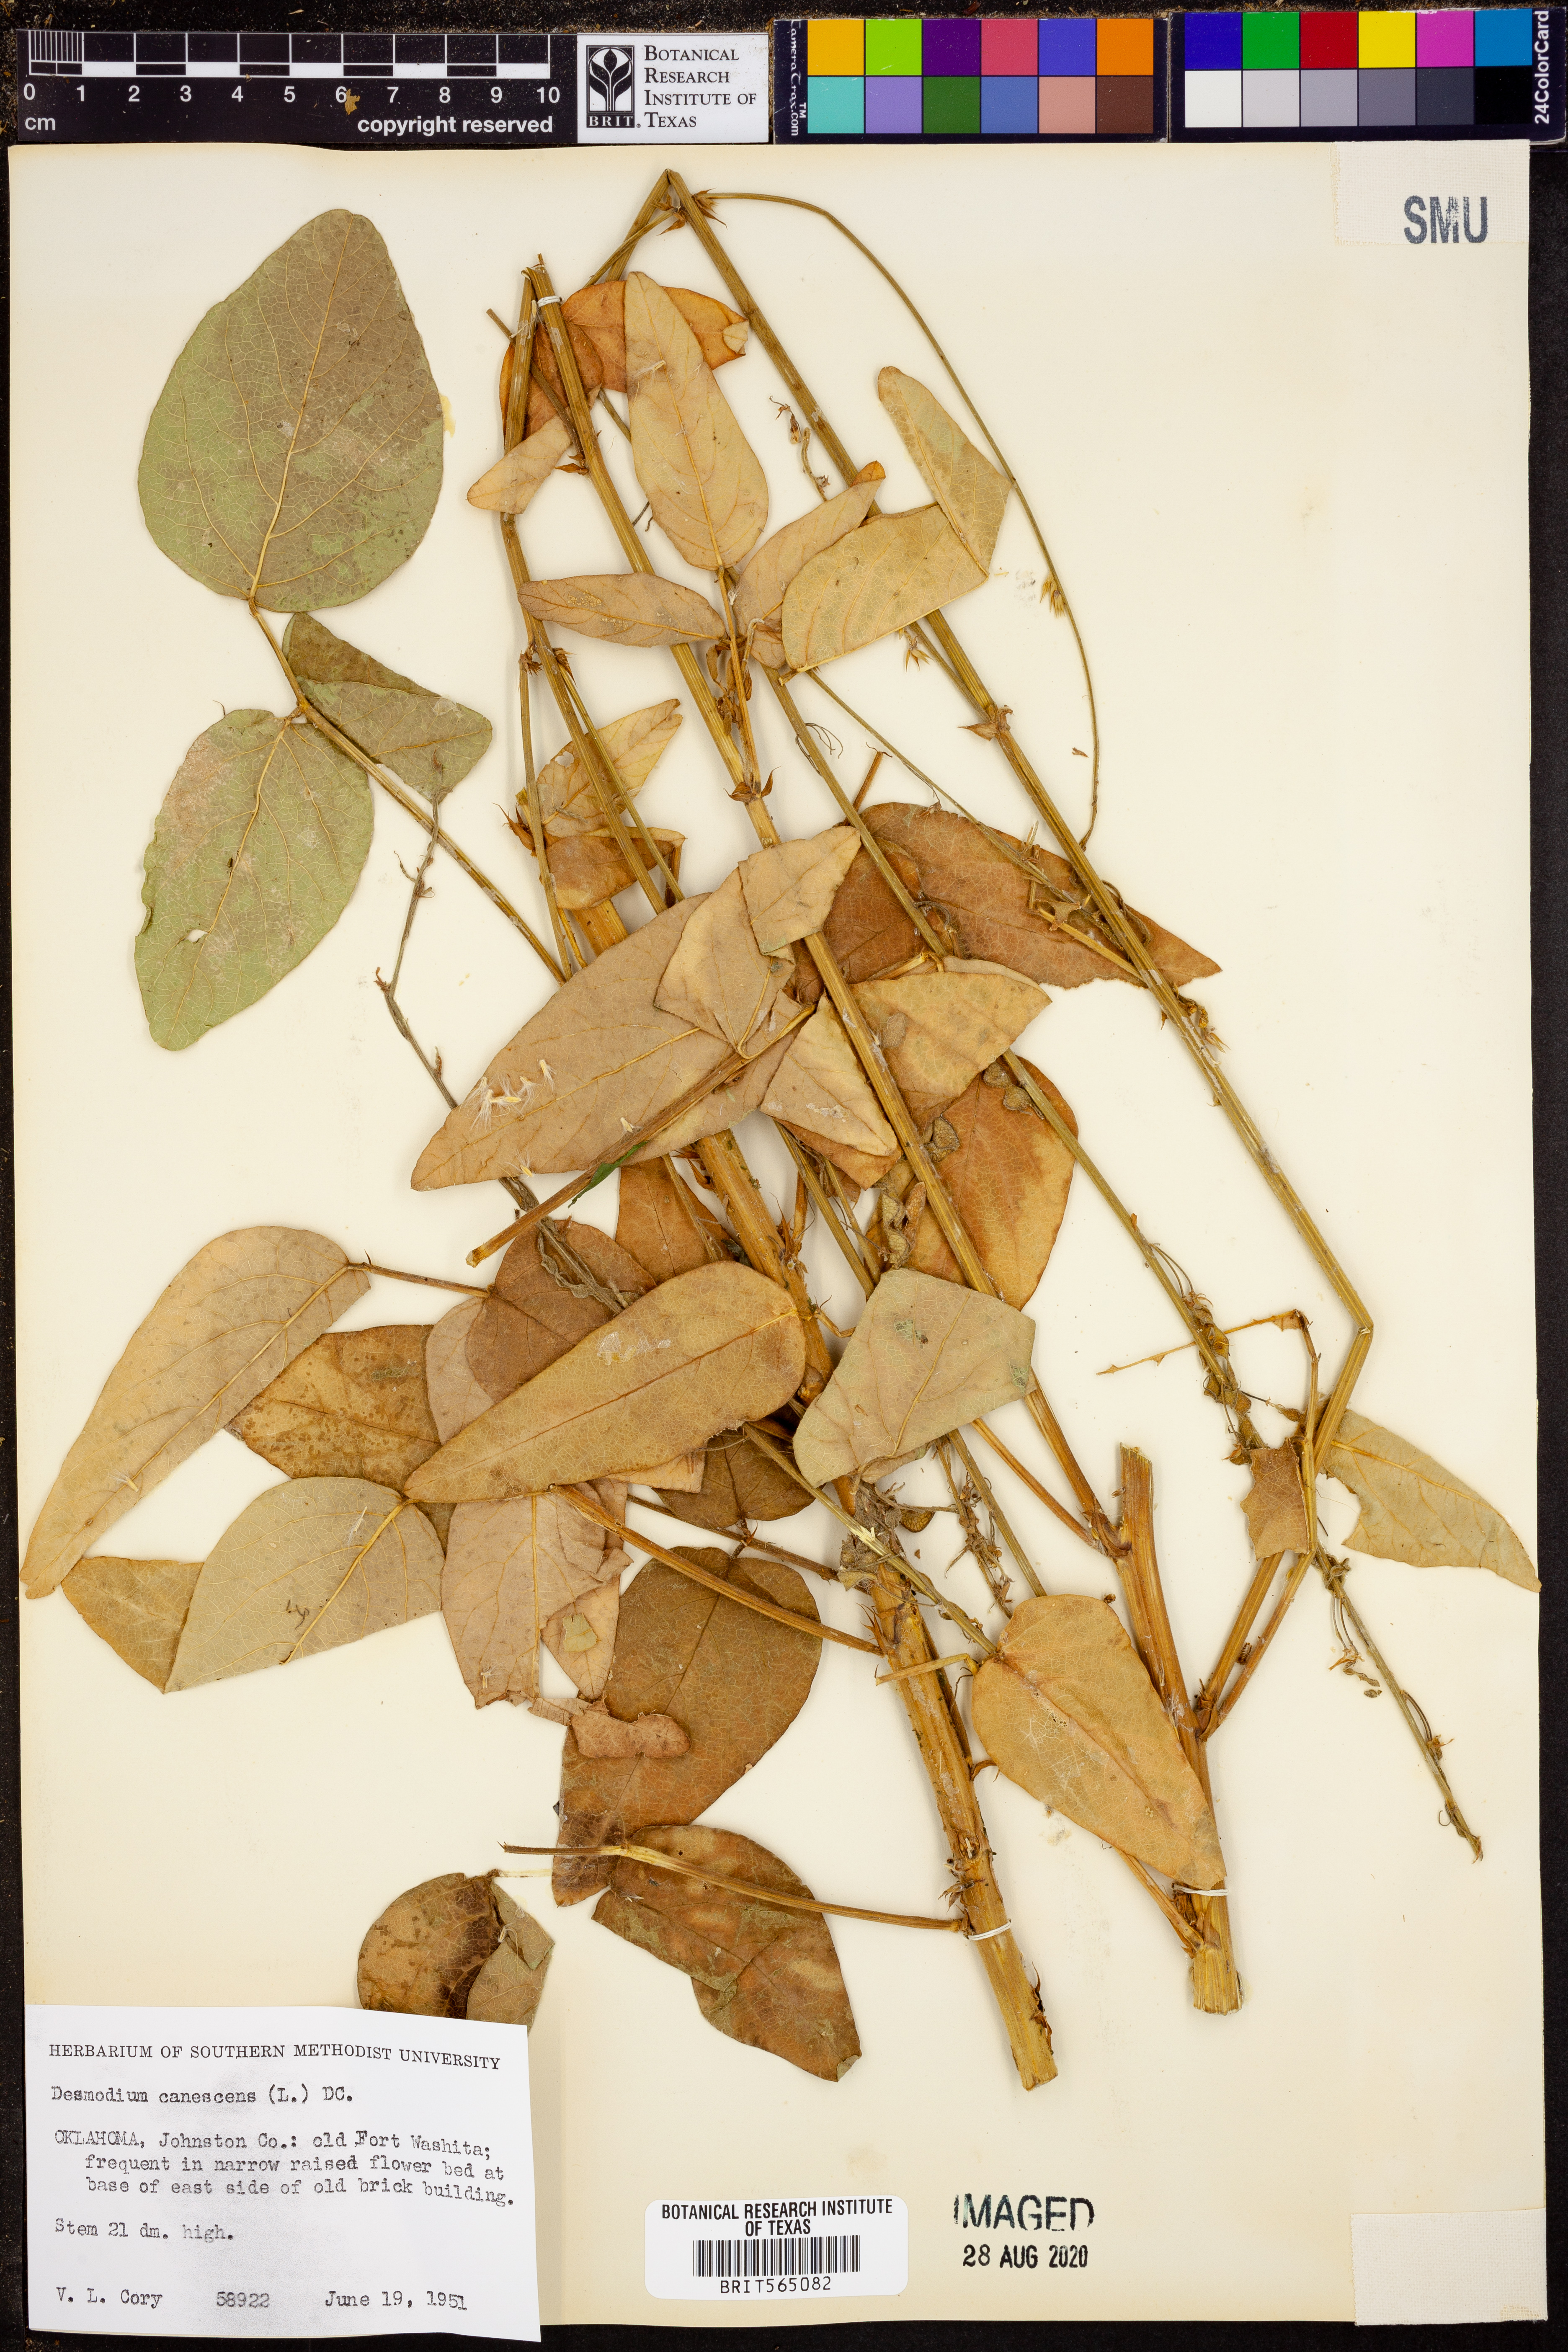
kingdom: Plantae
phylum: Tracheophyta
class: Magnoliopsida
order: Fabales
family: Fabaceae
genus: Desmodium
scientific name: Desmodium canescens
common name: Hoary tick-clover
